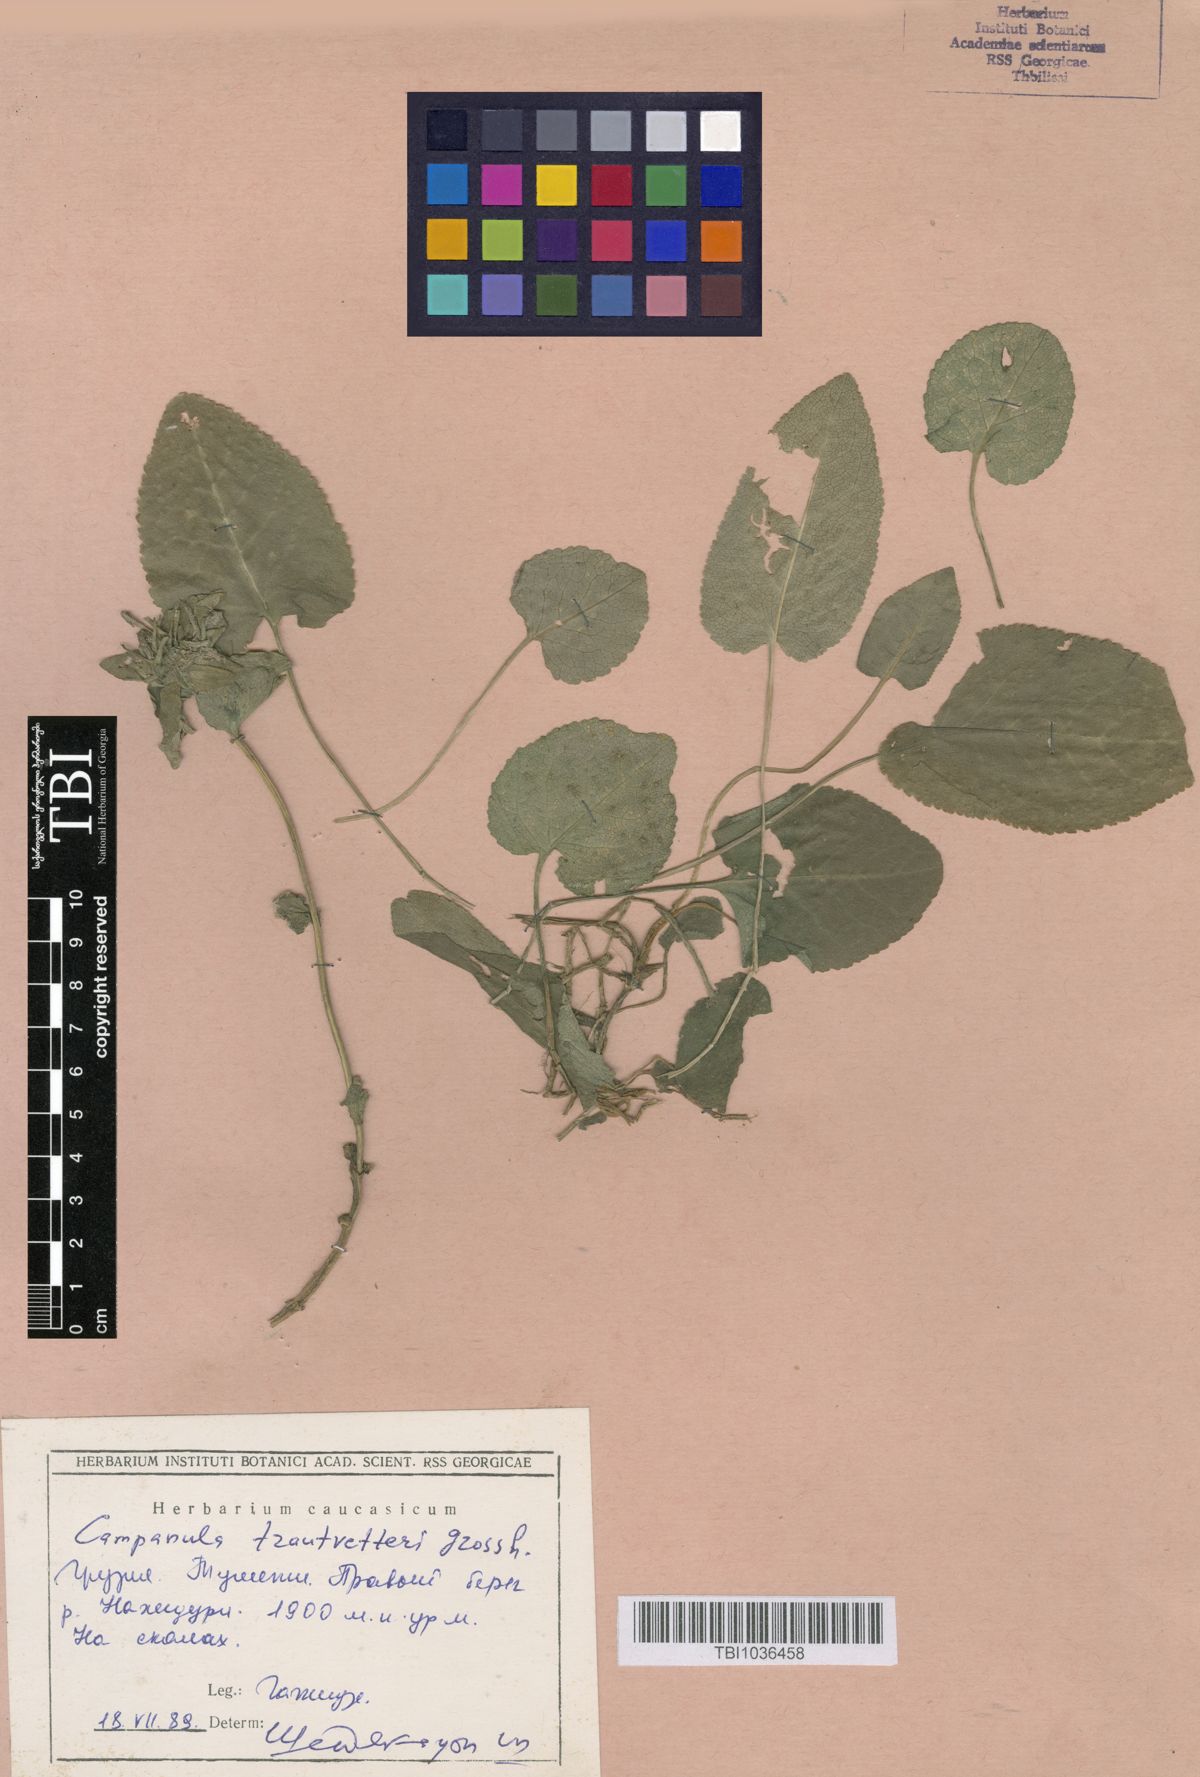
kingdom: Plantae
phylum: Tracheophyta
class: Magnoliopsida
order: Asterales
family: Campanulaceae
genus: Campanula
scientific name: Campanula glomerata
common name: Clustered bellflower
